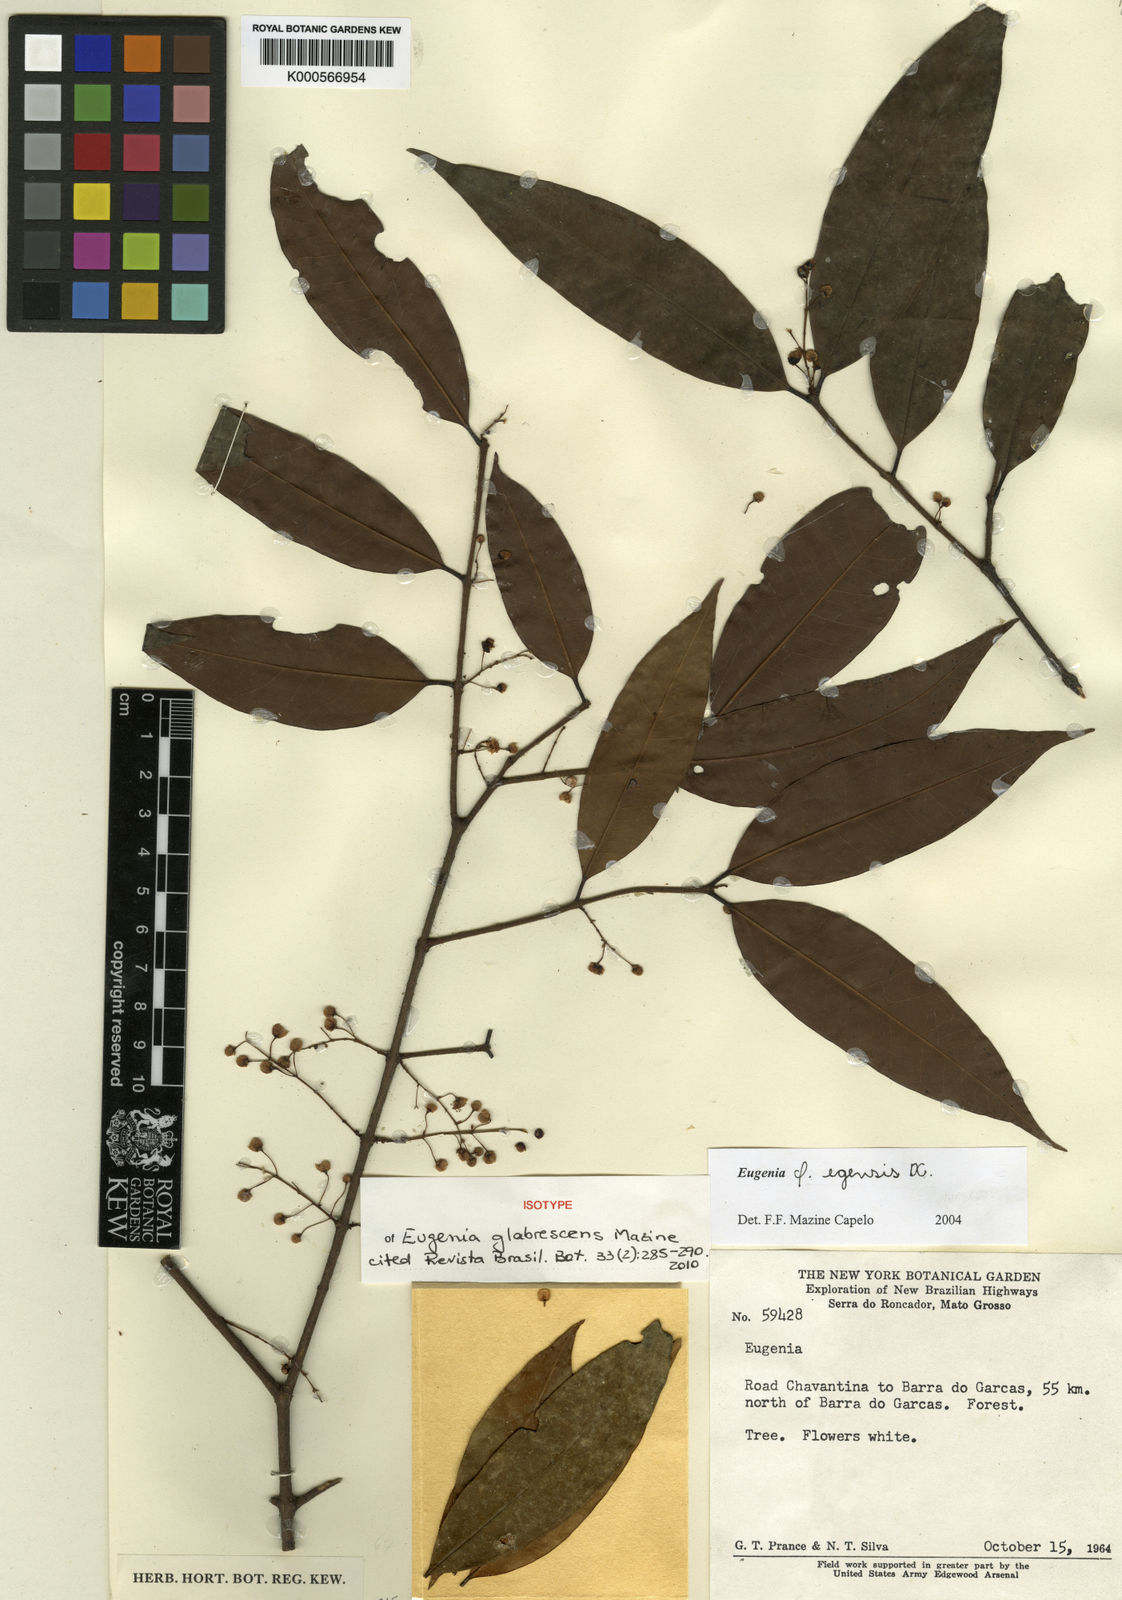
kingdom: Plantae
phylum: Tracheophyta
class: Magnoliopsida
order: Myrtales
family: Myrtaceae
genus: Eugenia
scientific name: Eugenia glabrescens
